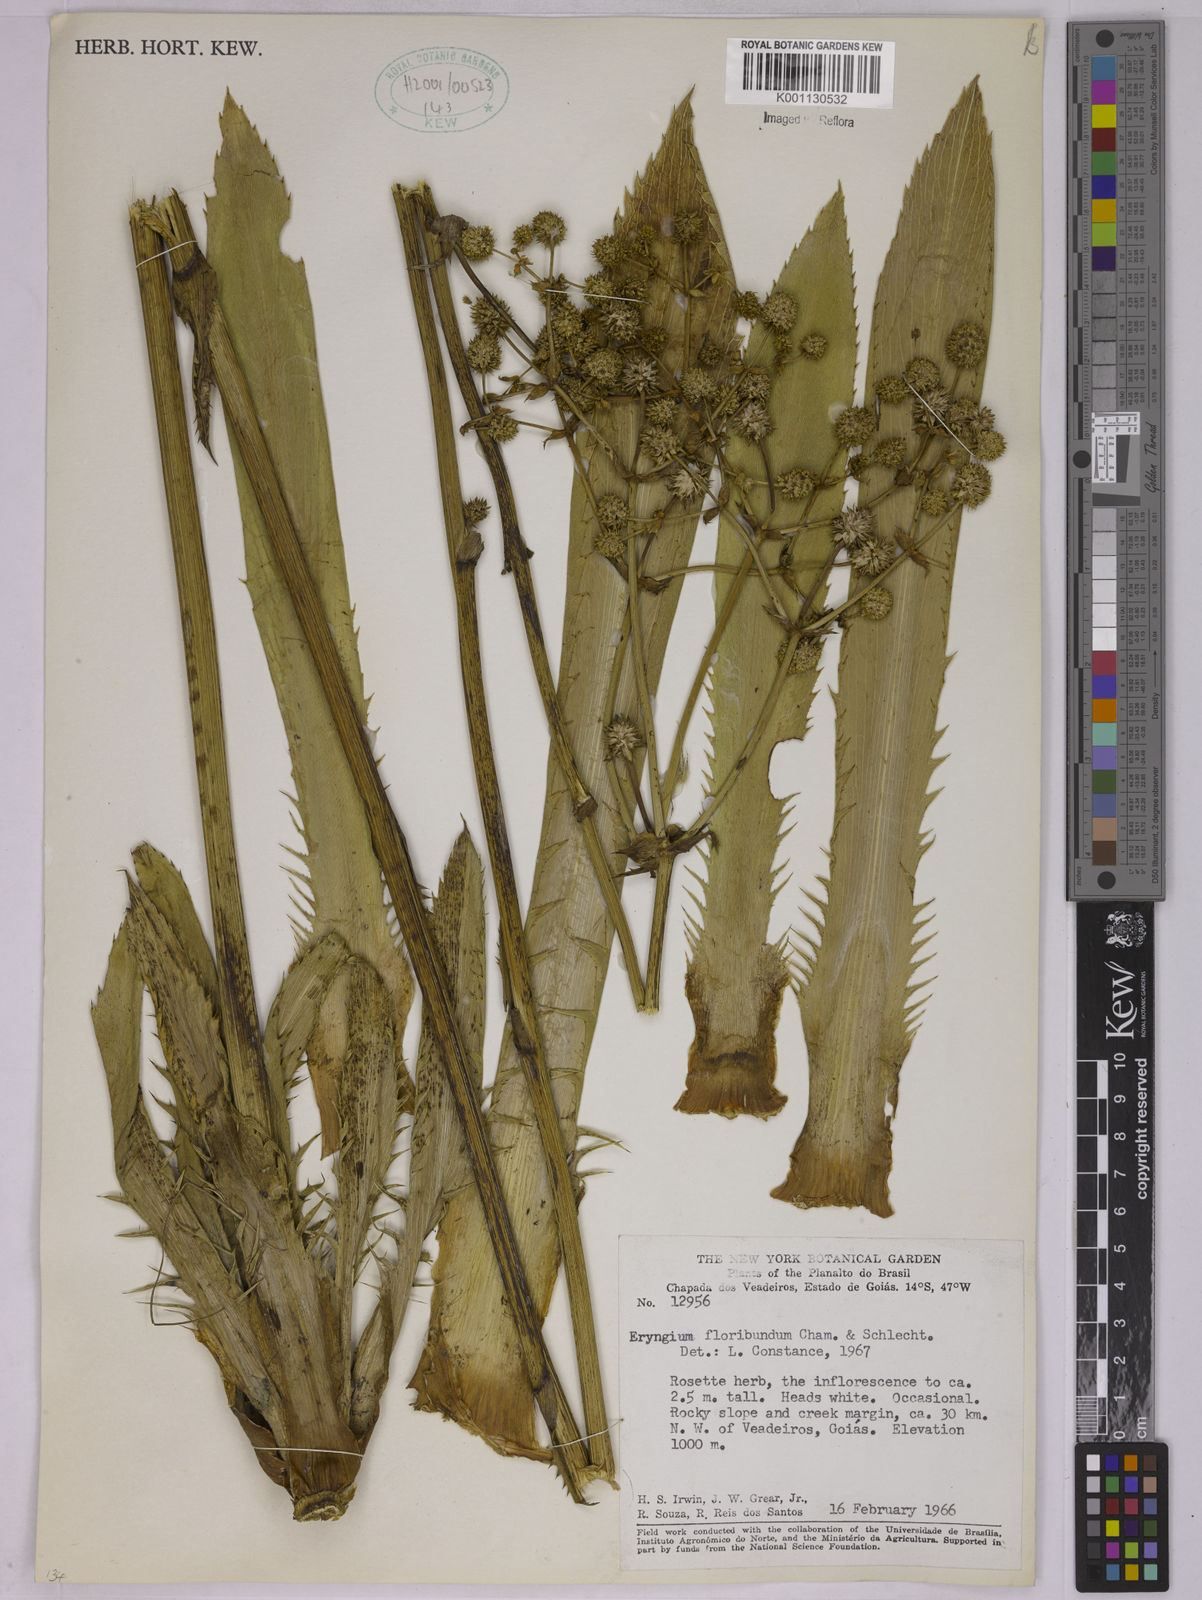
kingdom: Plantae
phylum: Tracheophyta
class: Magnoliopsida
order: Apiales
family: Apiaceae
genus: Eryngium
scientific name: Eryngium floribundum
